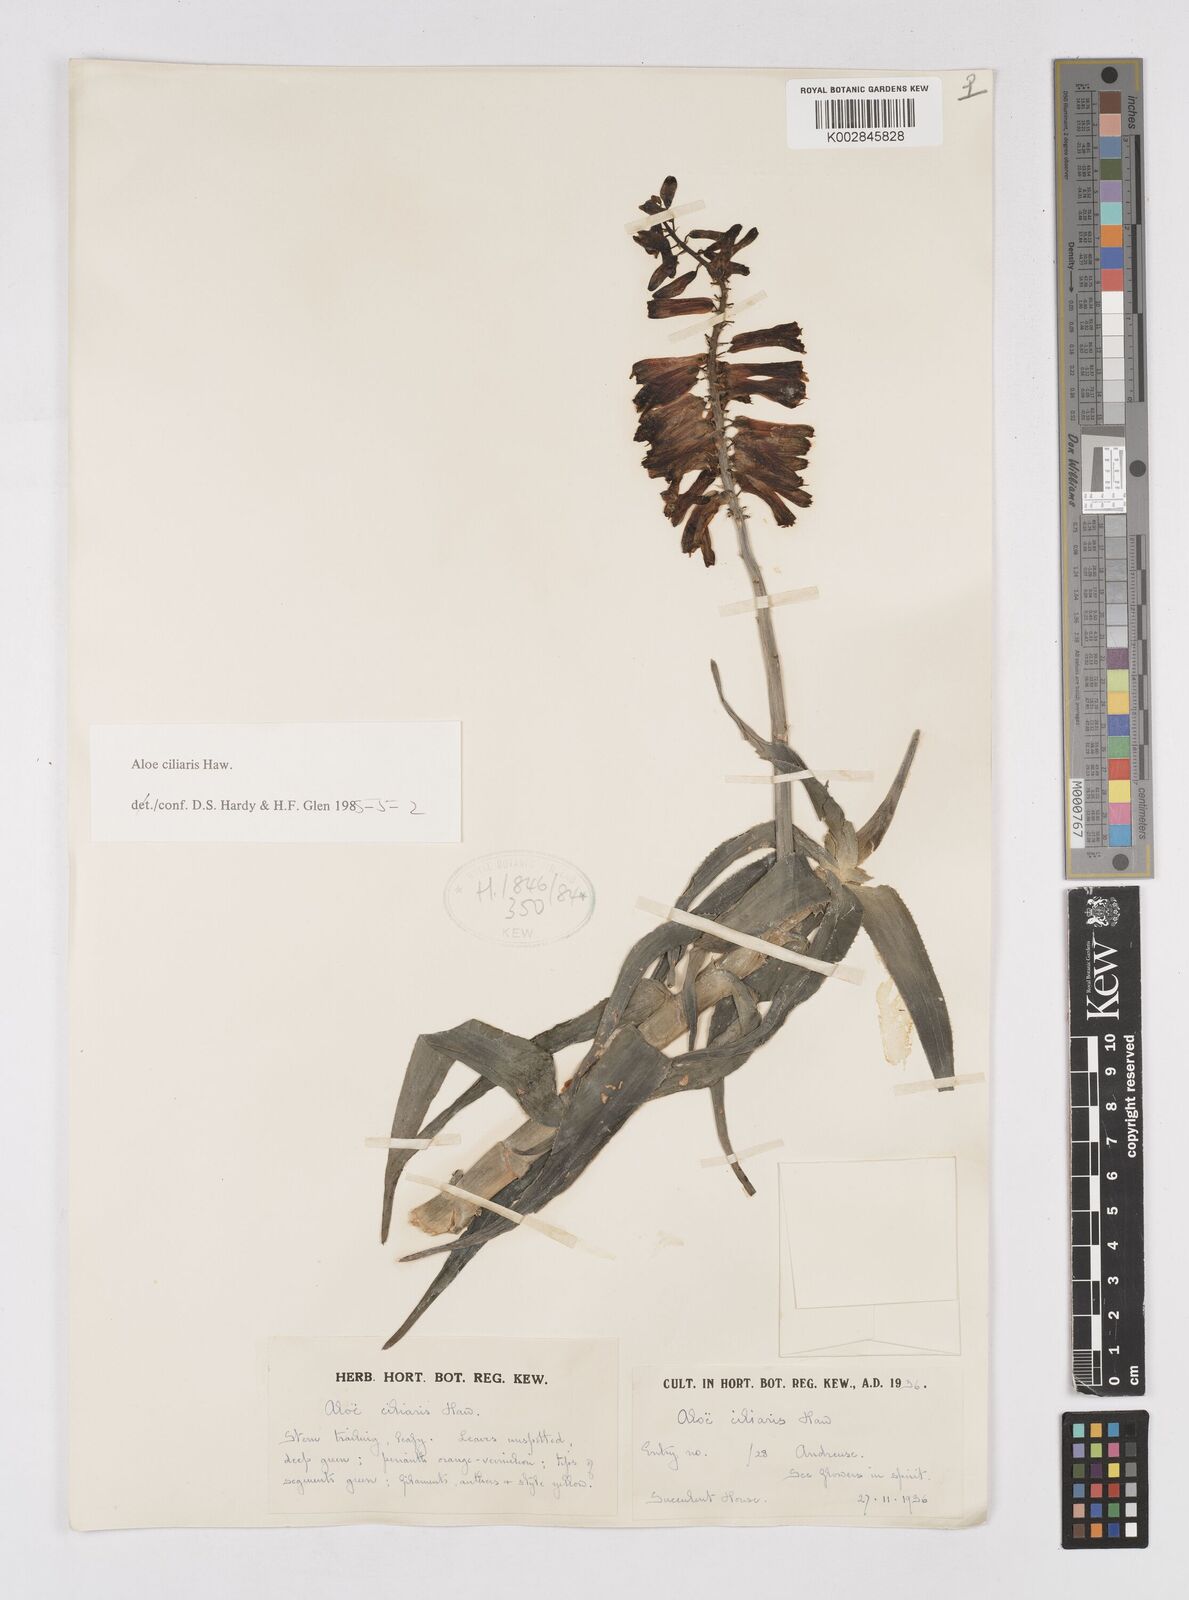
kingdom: Plantae
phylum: Tracheophyta
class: Liliopsida
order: Asparagales
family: Asphodelaceae
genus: Aloiampelos
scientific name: Aloiampelos ciliaris
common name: Climbing aloe
